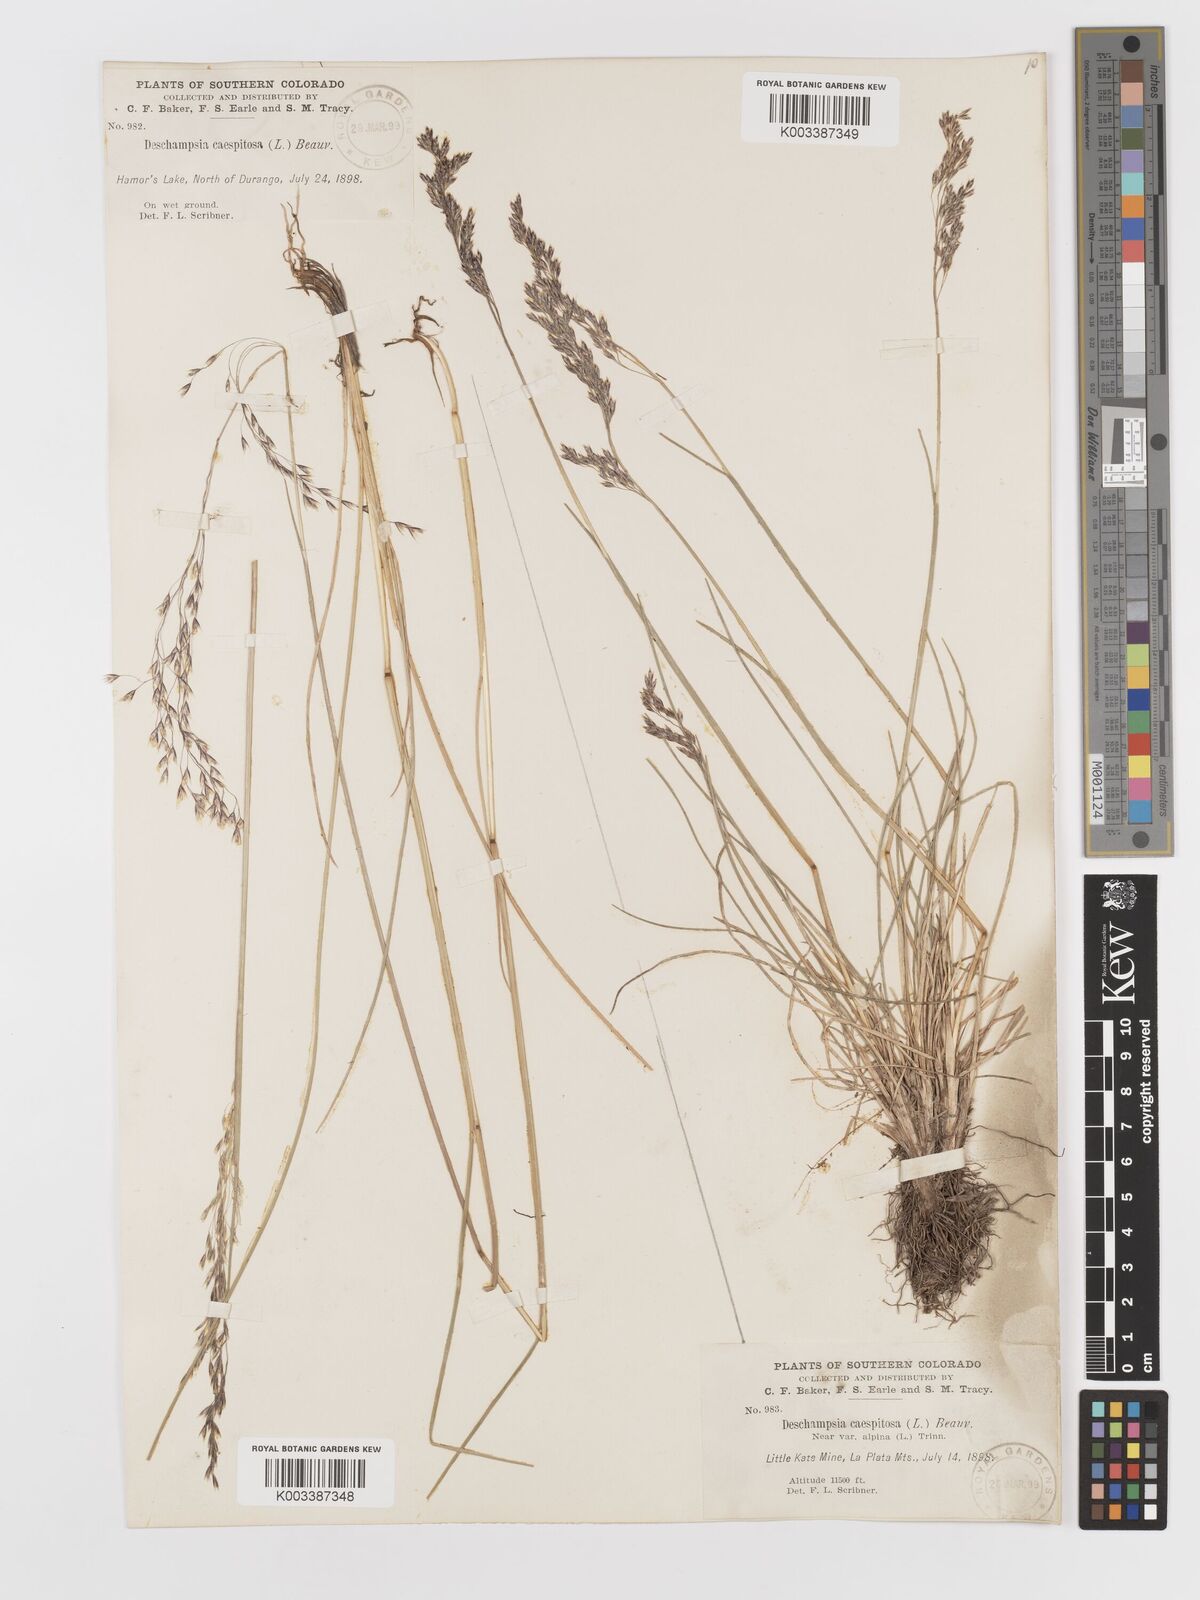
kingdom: Plantae
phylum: Tracheophyta
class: Liliopsida
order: Poales
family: Poaceae
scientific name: Poaceae
